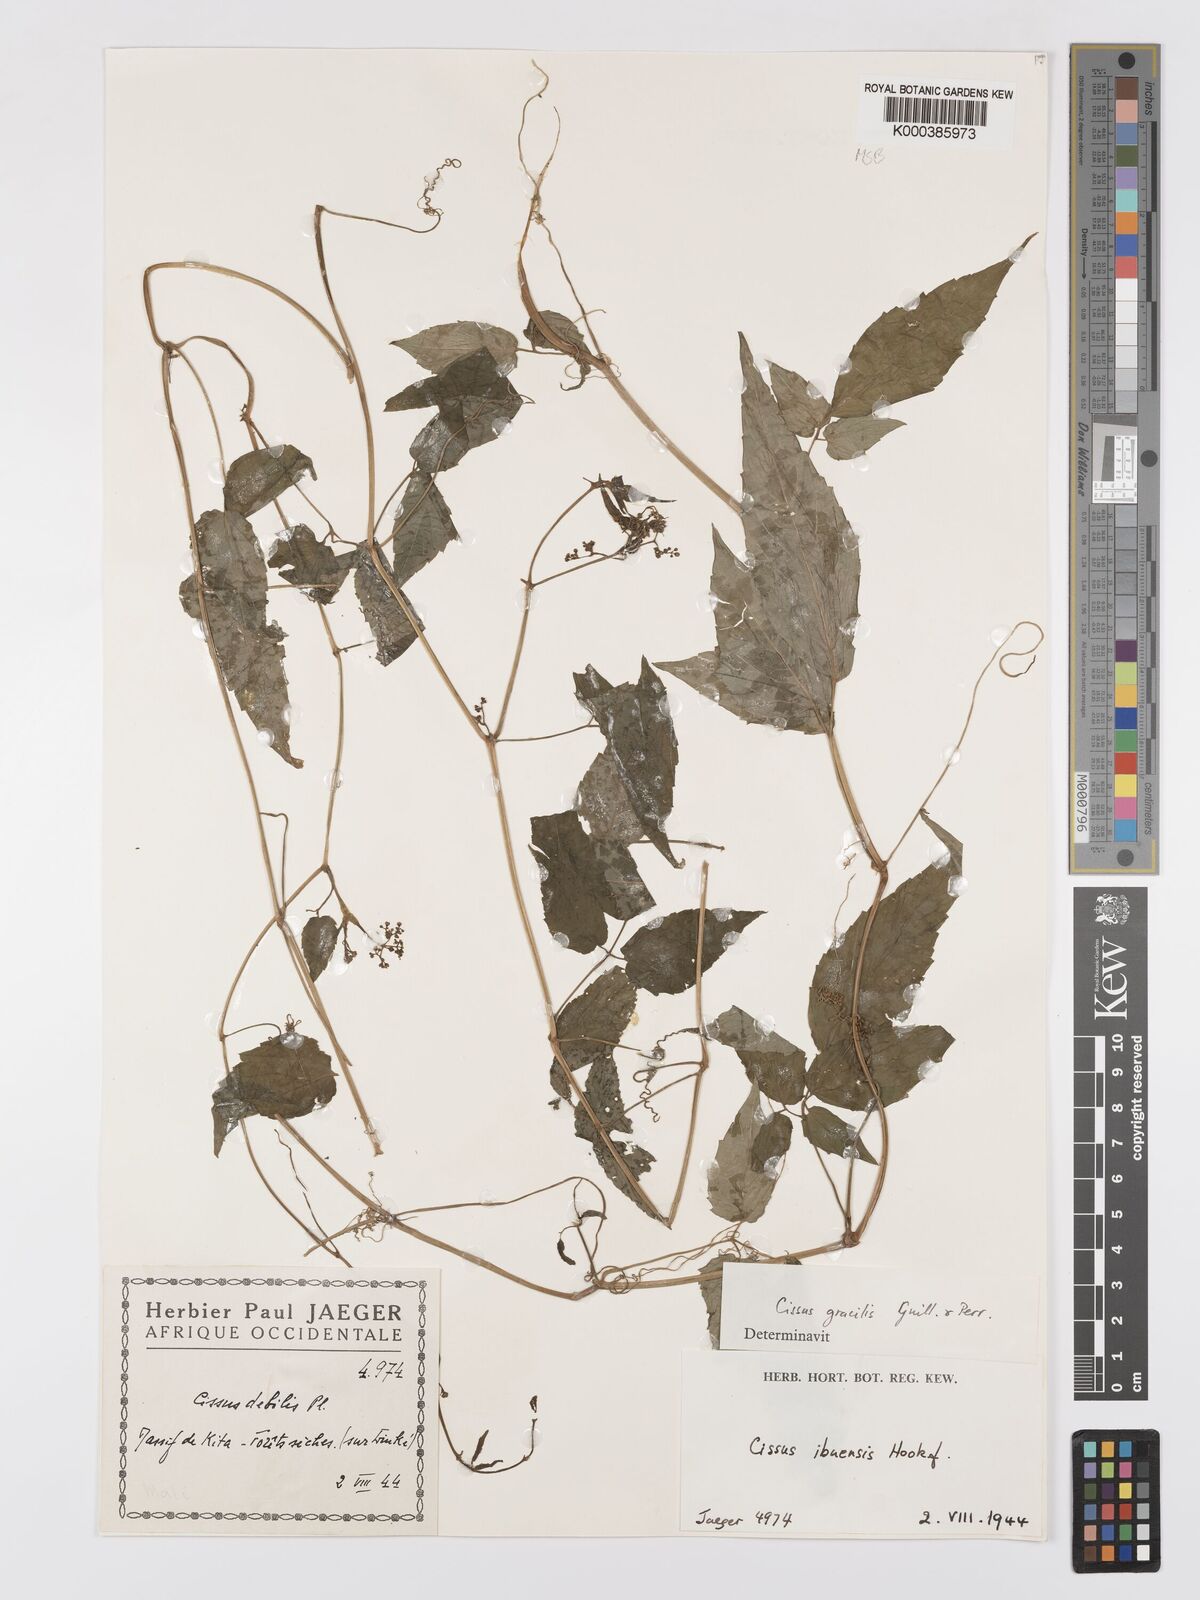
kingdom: Plantae
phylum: Tracheophyta
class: Magnoliopsida
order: Vitales
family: Vitaceae
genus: Afrocayratia
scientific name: Afrocayratia gracilis
